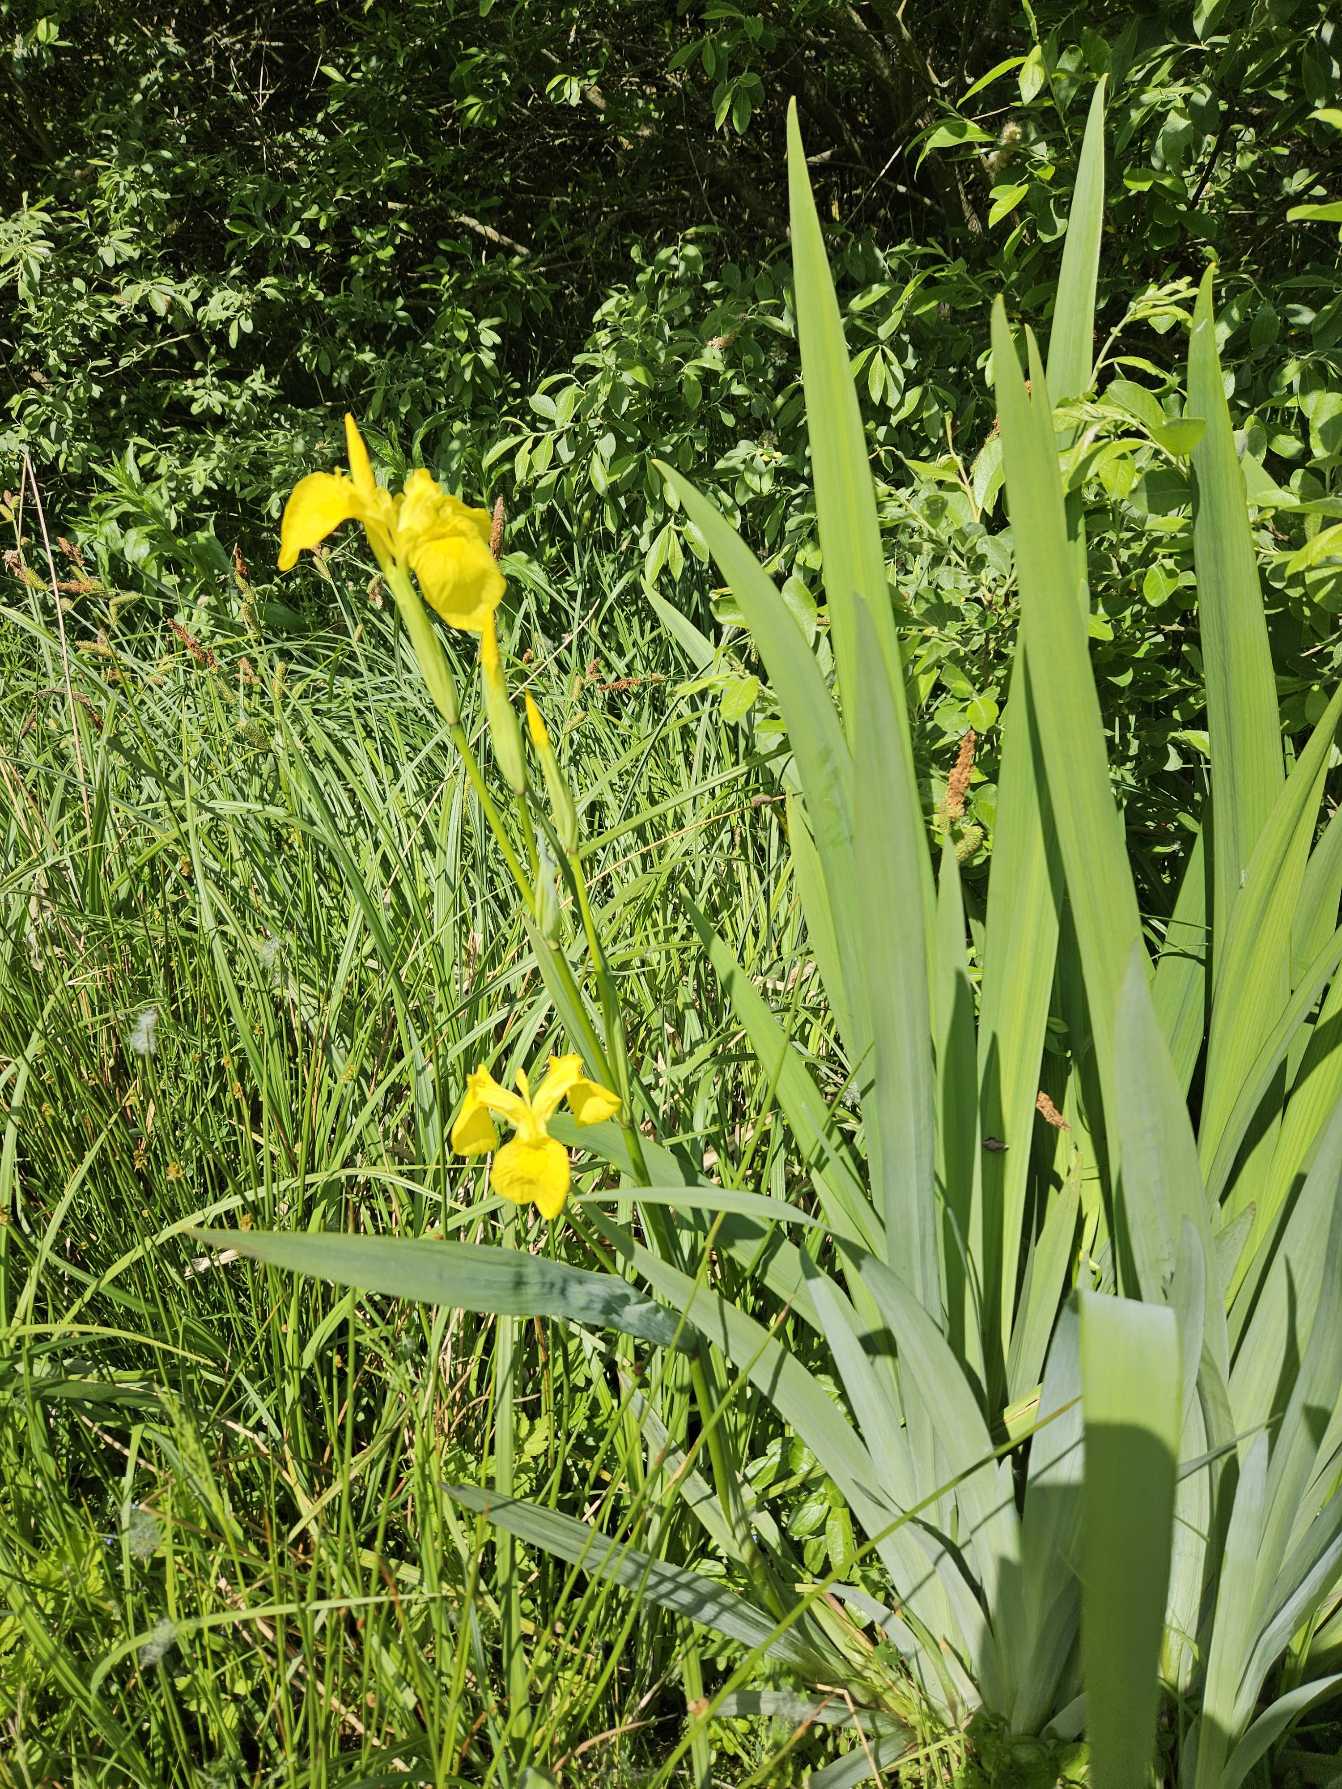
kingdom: Plantae
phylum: Tracheophyta
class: Liliopsida
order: Asparagales
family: Iridaceae
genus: Iris
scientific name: Iris pseudacorus
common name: Gul iris
